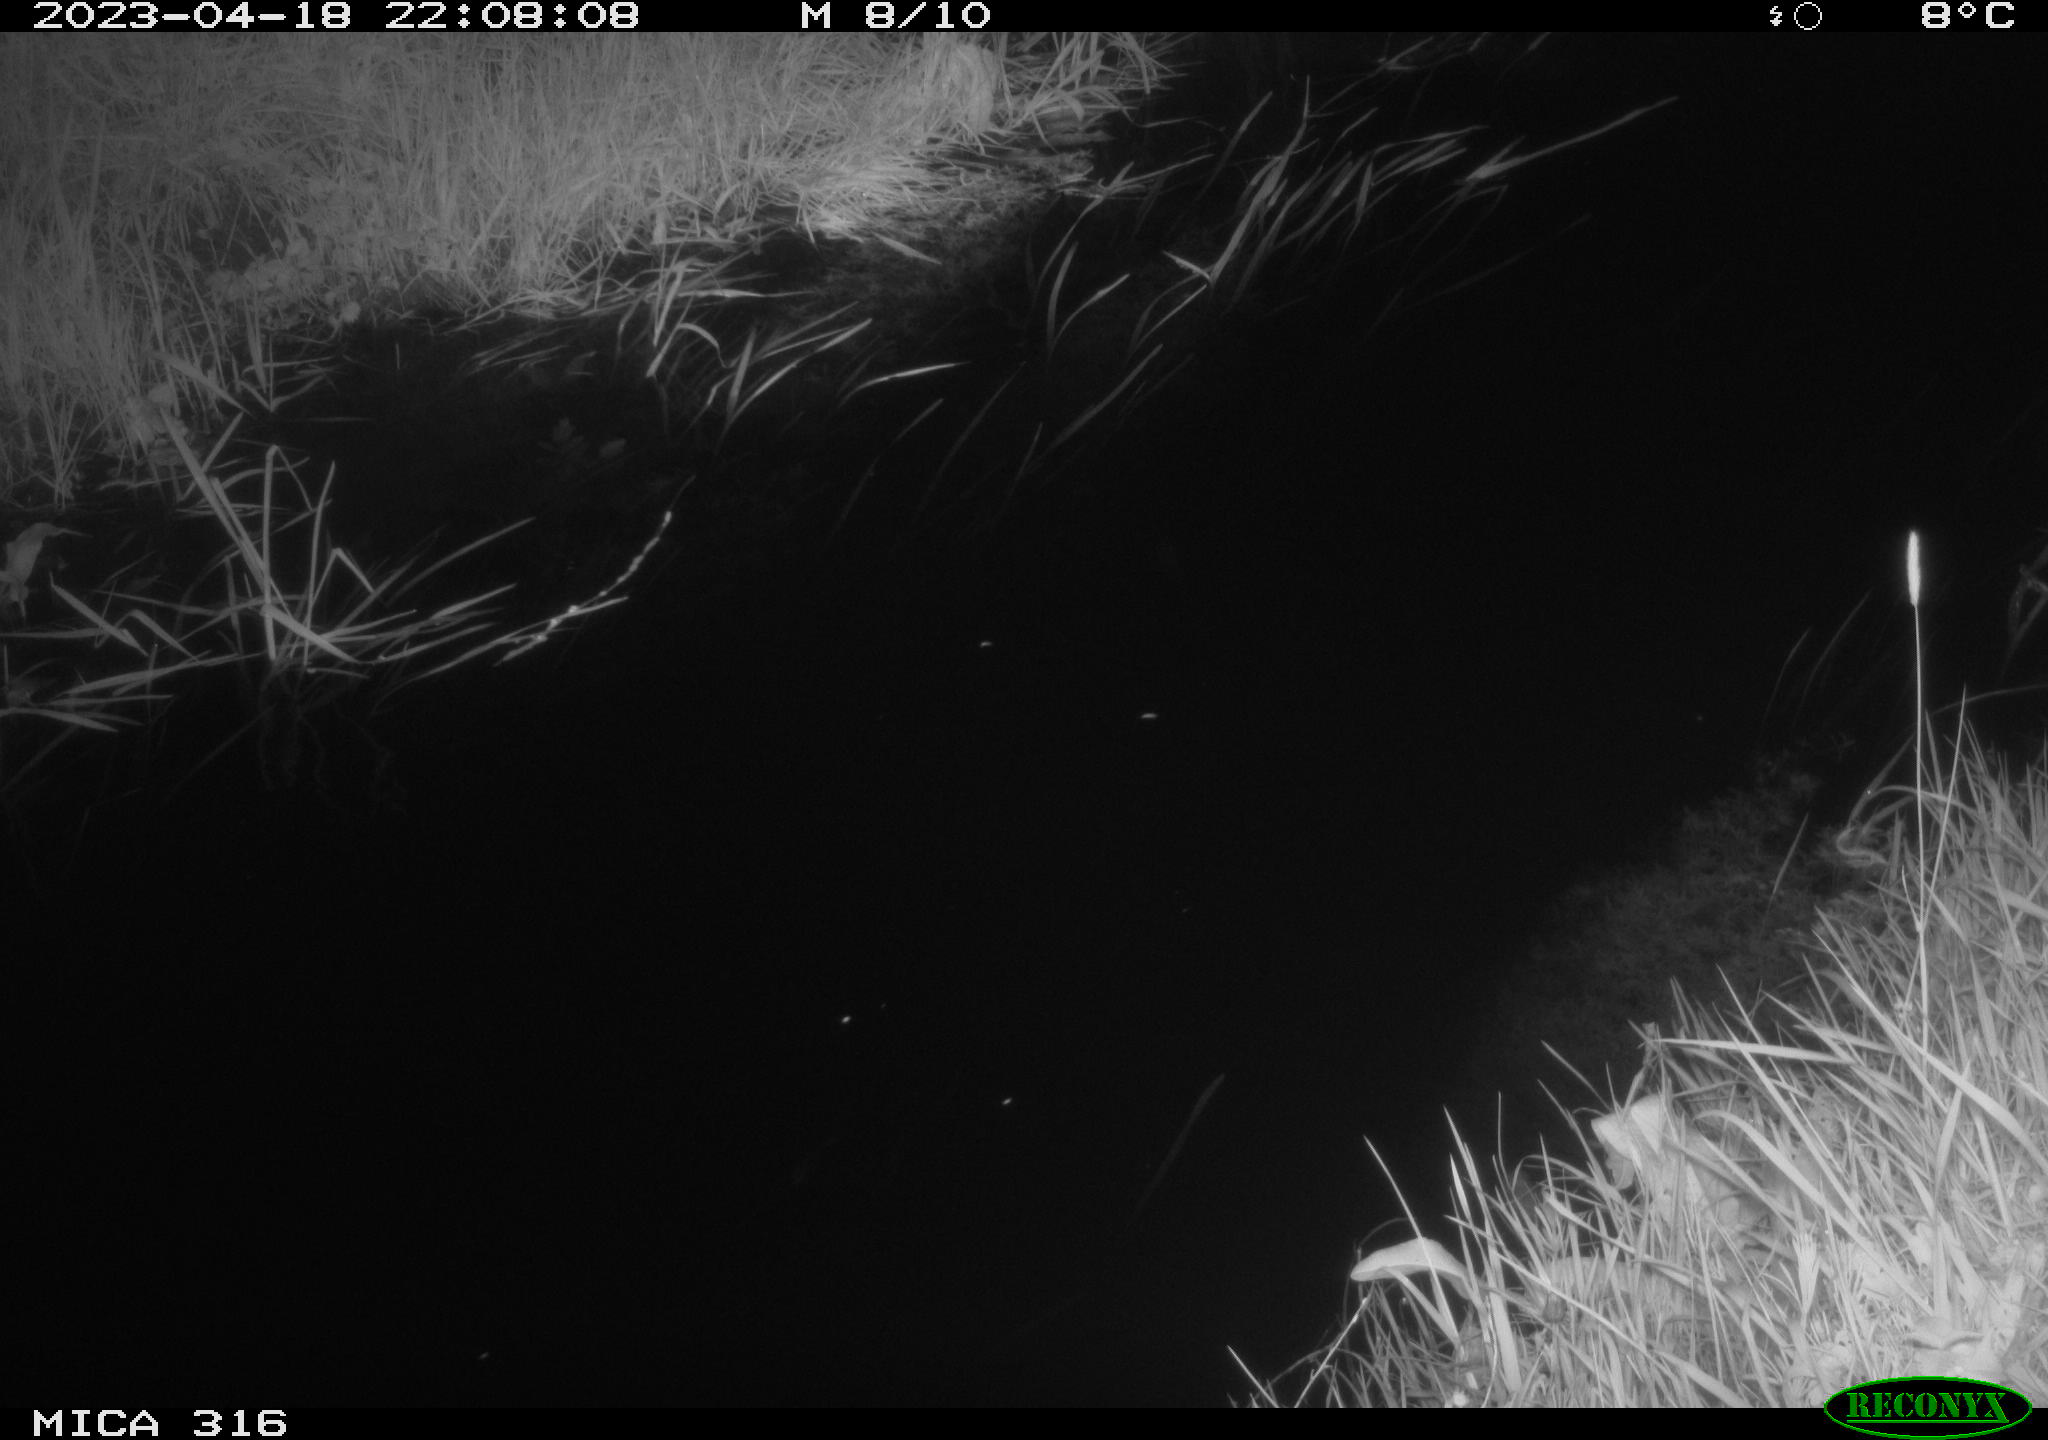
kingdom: Animalia
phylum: Chordata
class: Aves
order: Anseriformes
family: Anatidae
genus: Anas
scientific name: Anas
